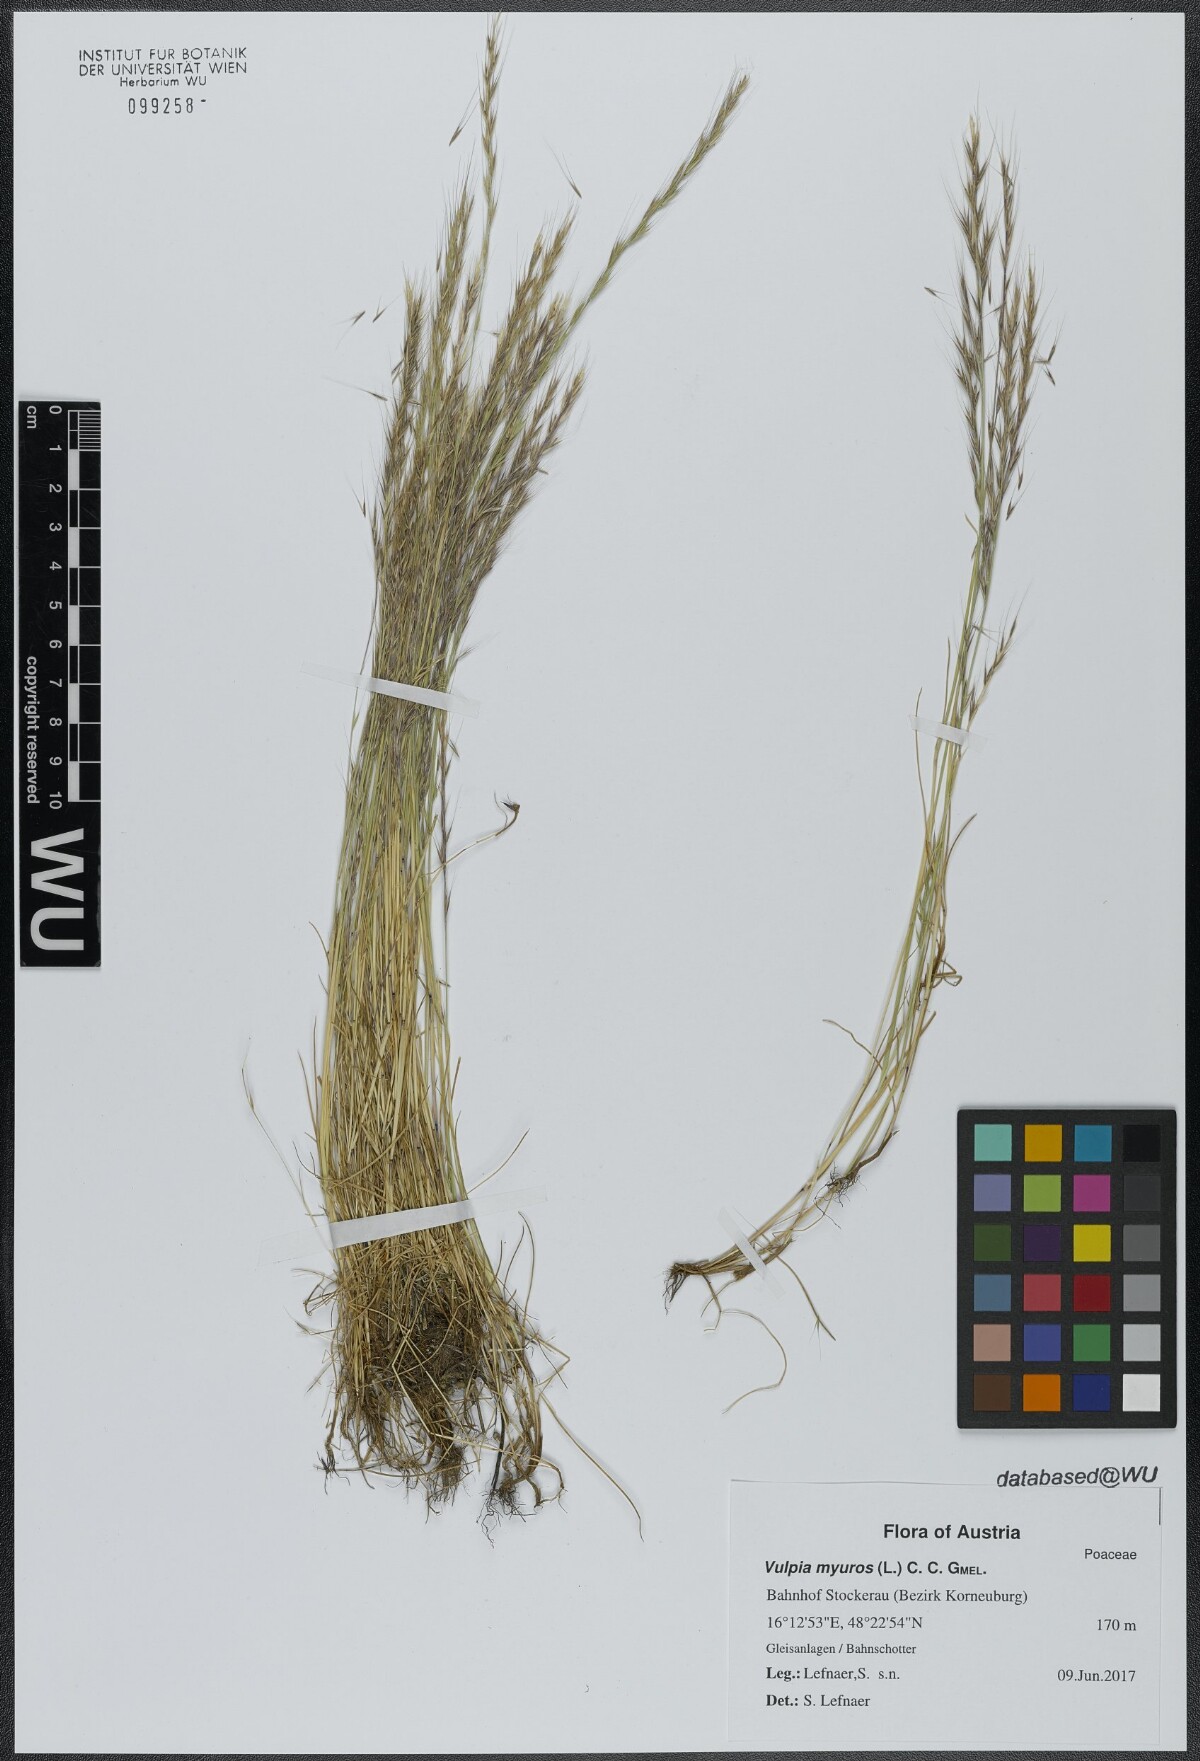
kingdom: Plantae
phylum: Tracheophyta
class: Liliopsida
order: Poales
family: Poaceae
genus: Festuca
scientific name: Festuca myuros
